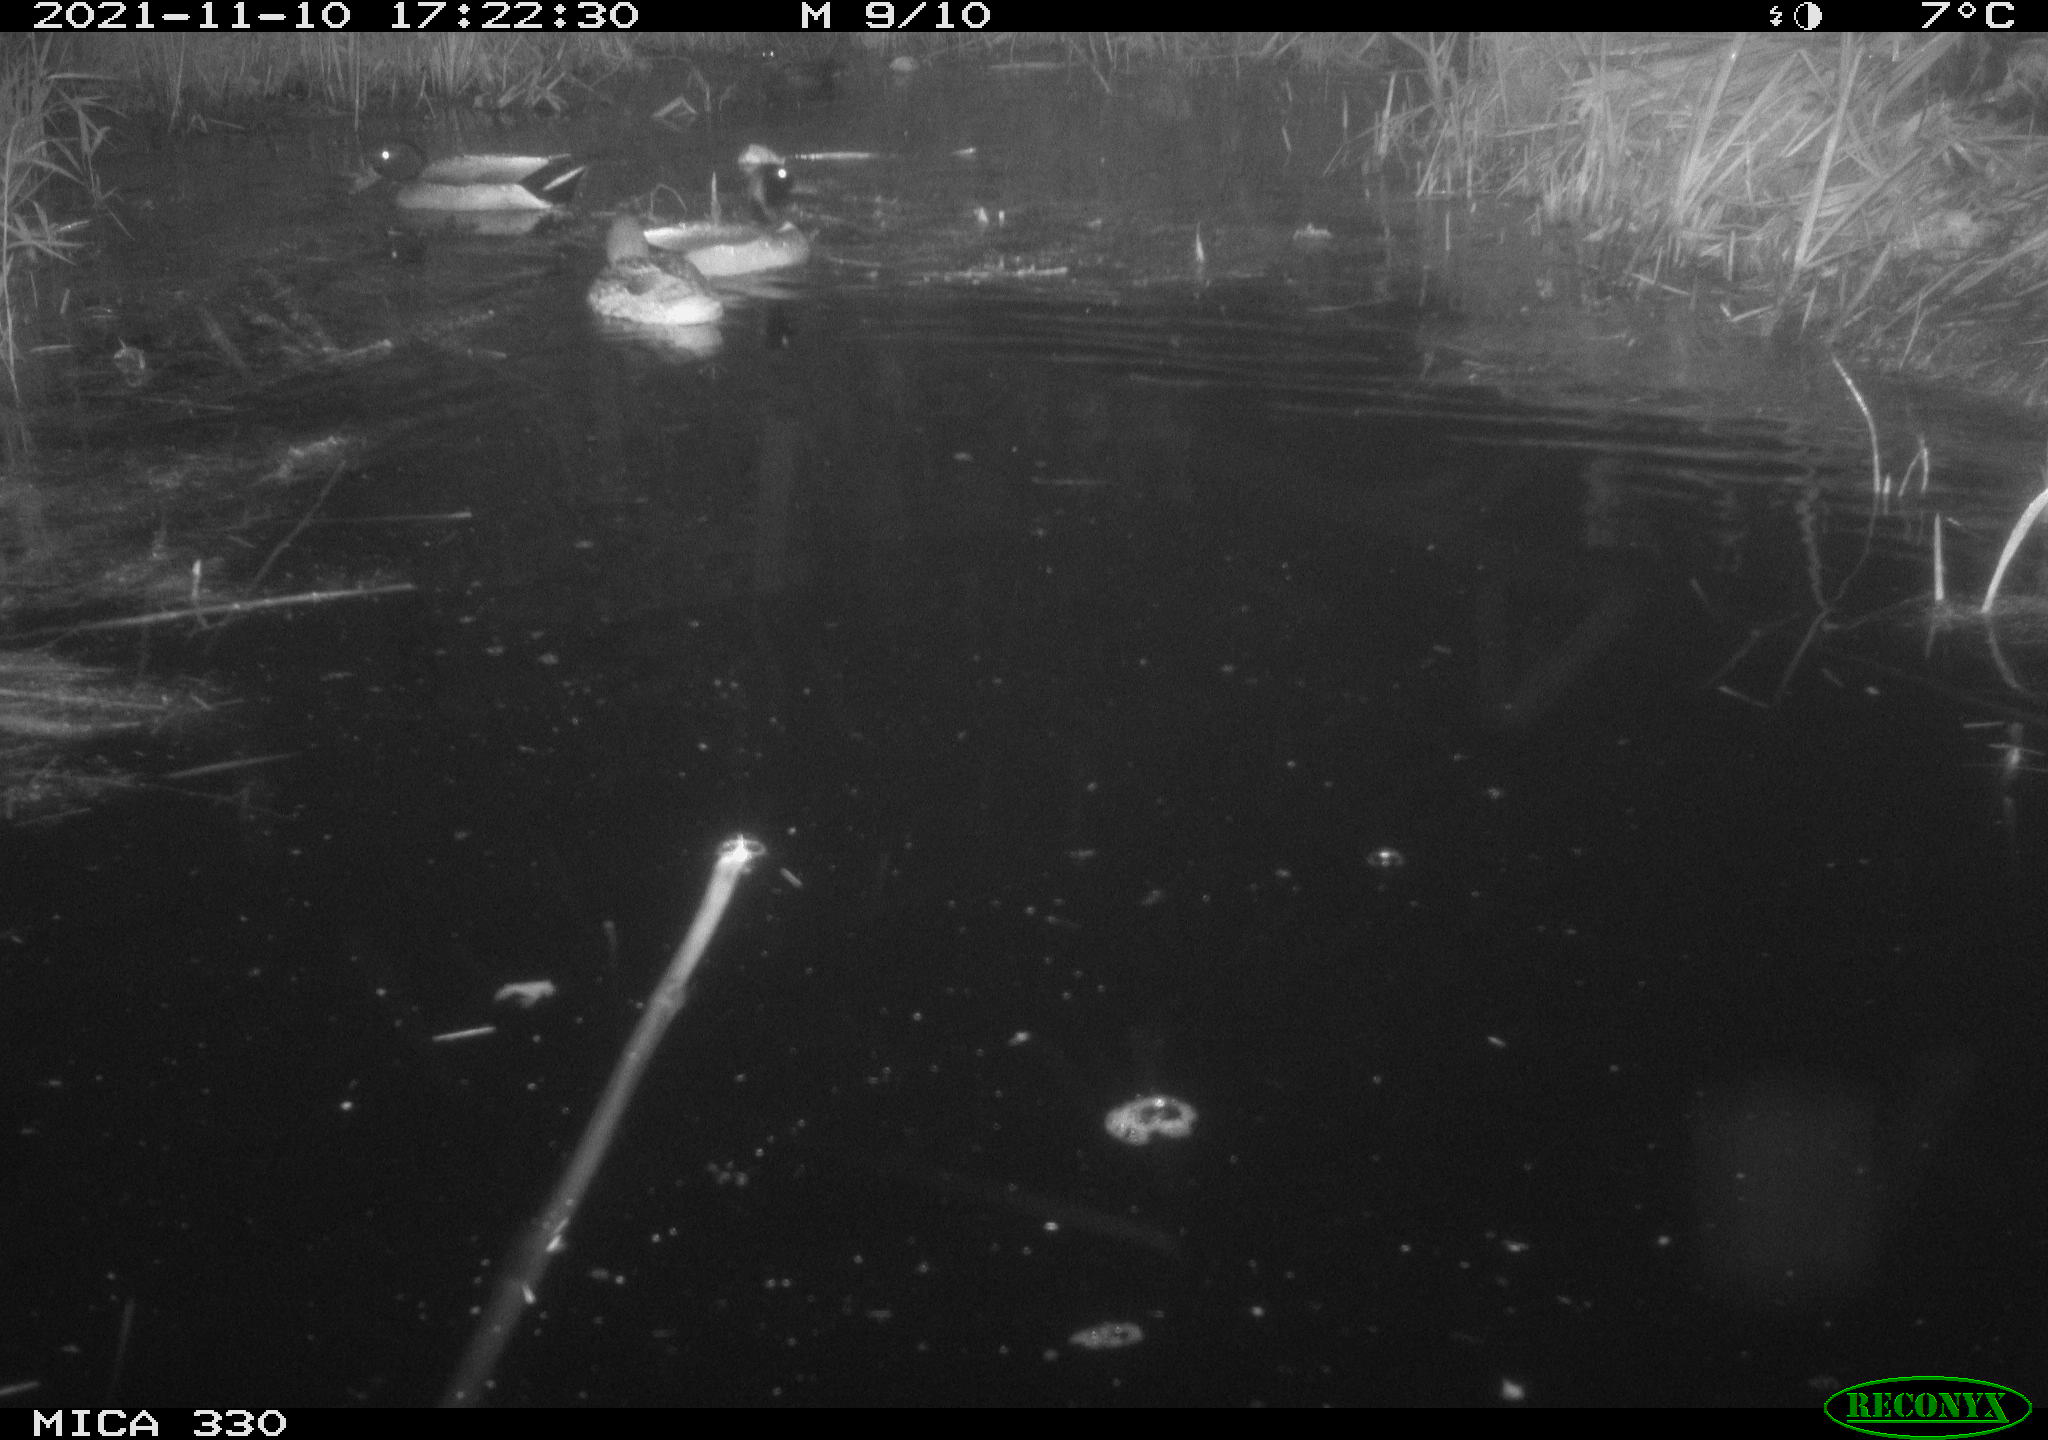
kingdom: Animalia
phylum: Chordata
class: Aves
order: Anseriformes
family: Anatidae
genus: Anas
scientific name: Anas platyrhynchos
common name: Mallard
